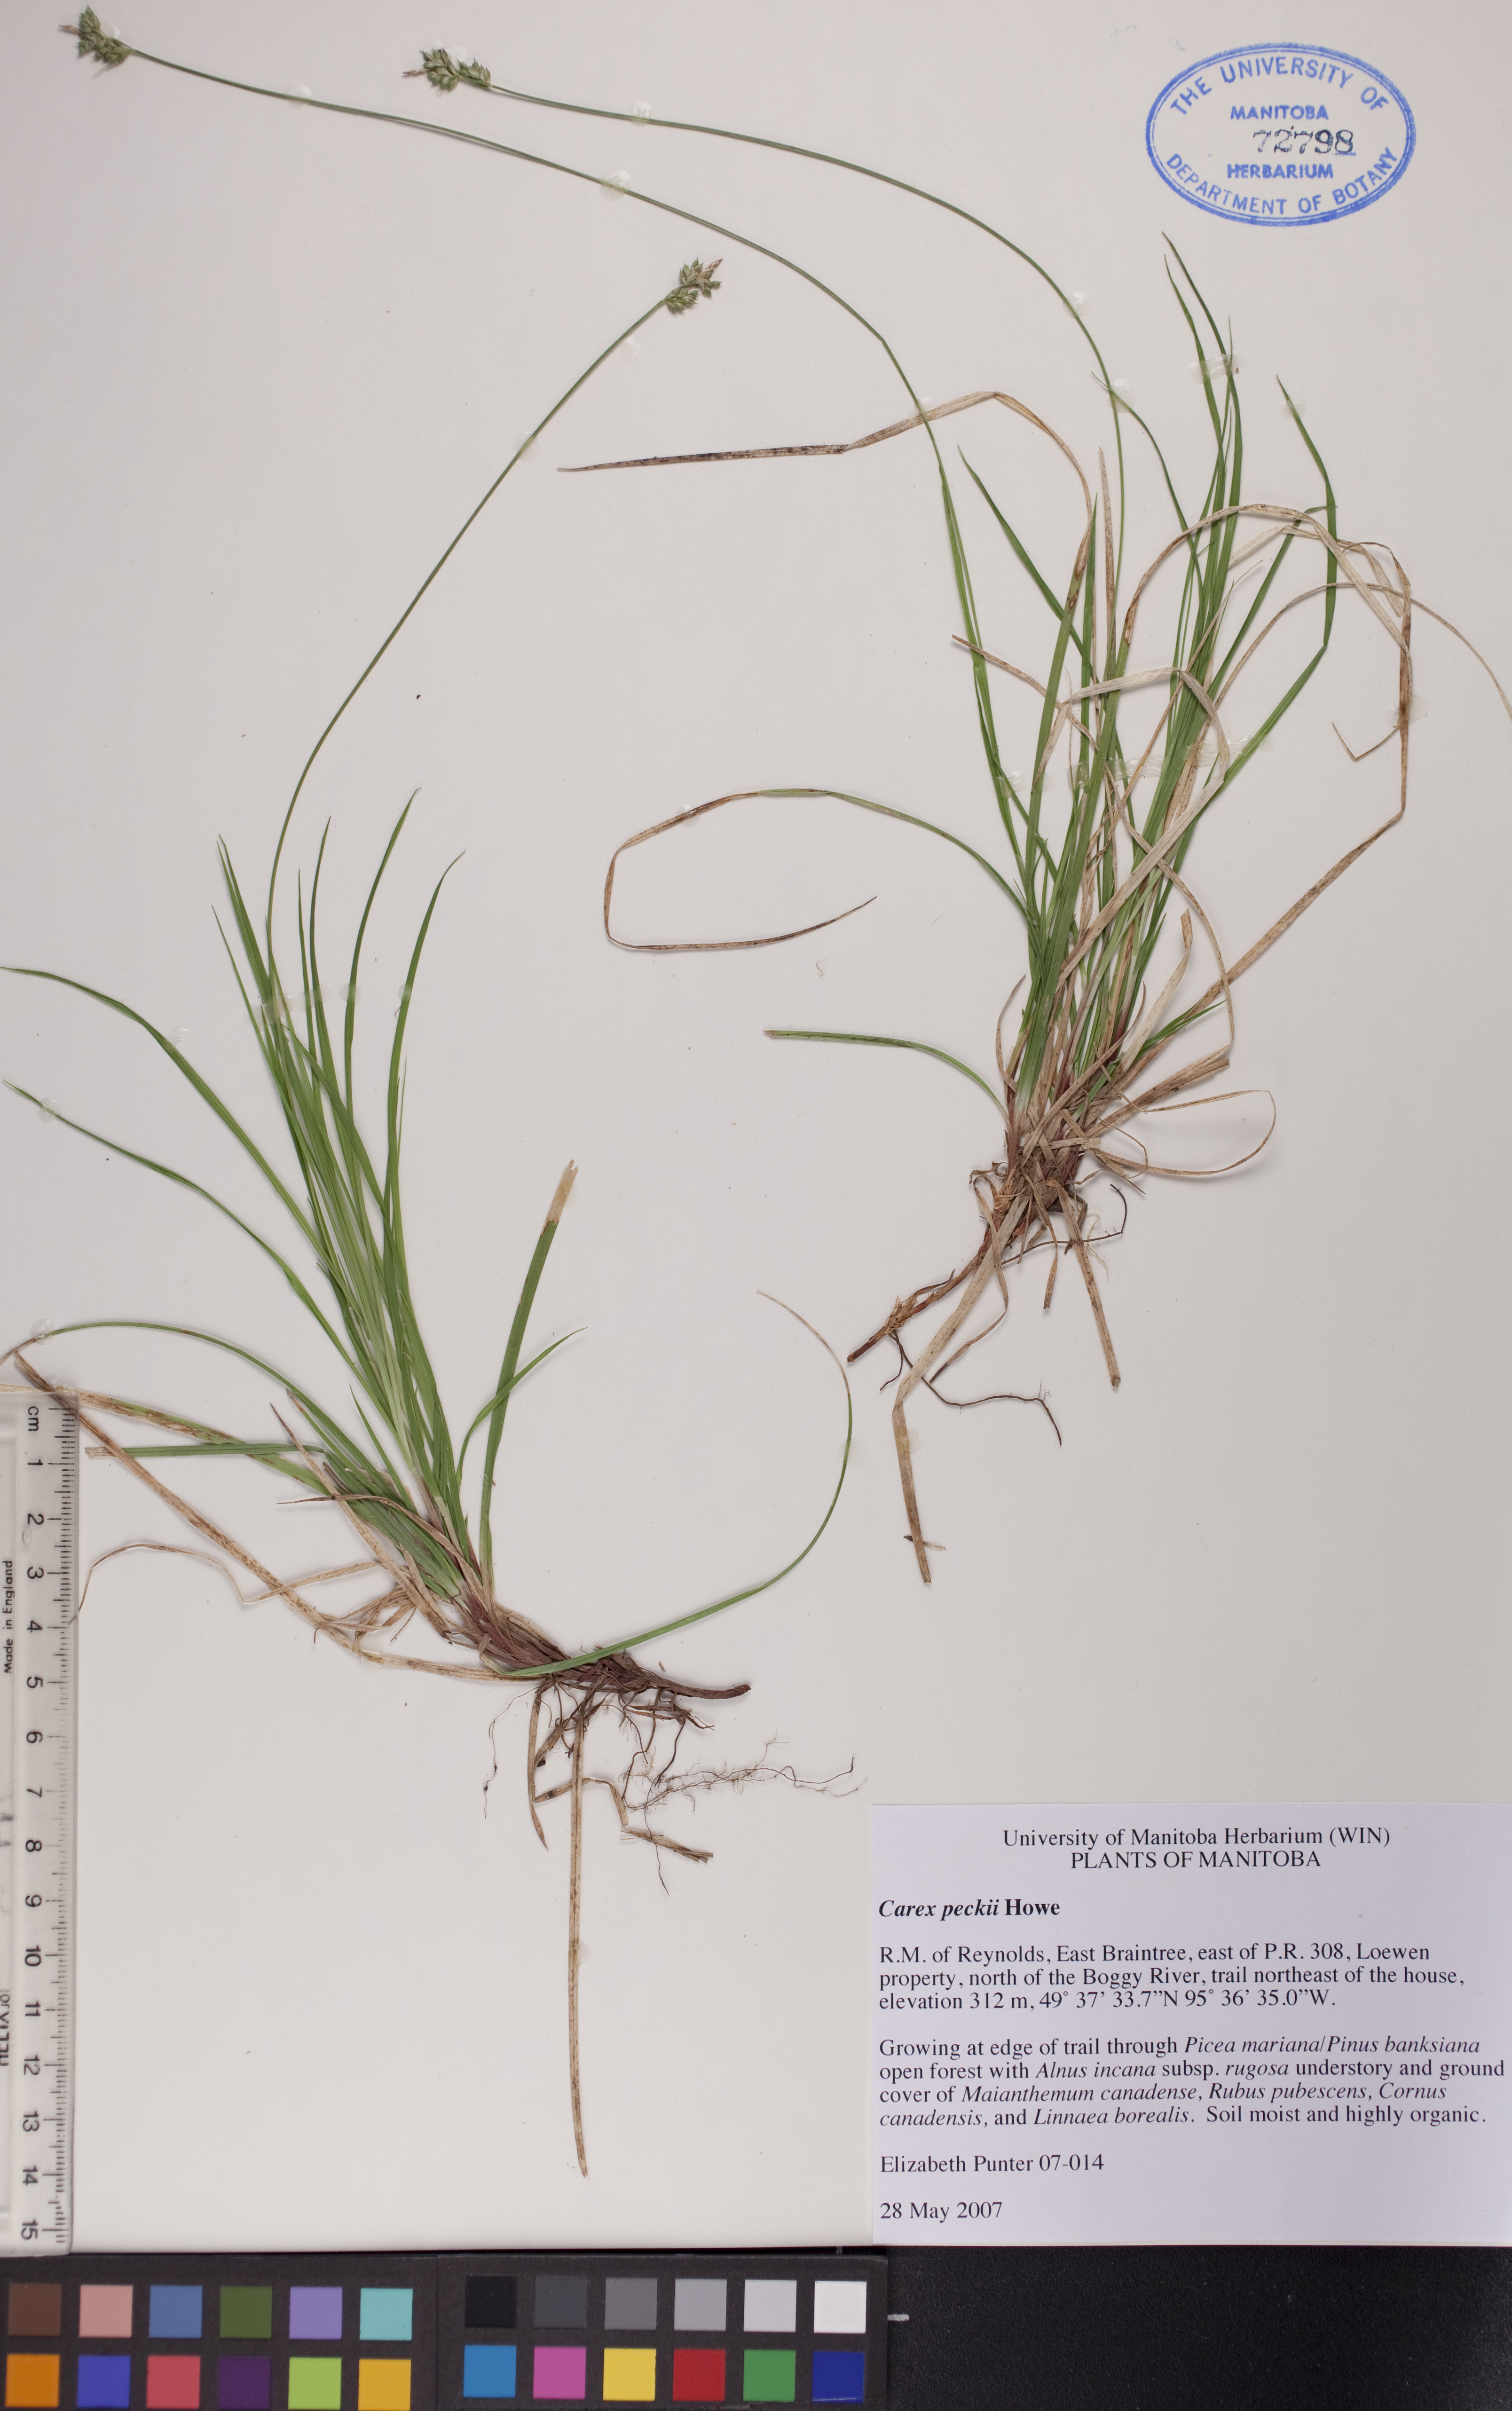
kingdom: Plantae
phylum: Tracheophyta
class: Liliopsida
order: Poales
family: Cyperaceae
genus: Carex
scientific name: Carex peckii
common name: Peck's oak sedge
